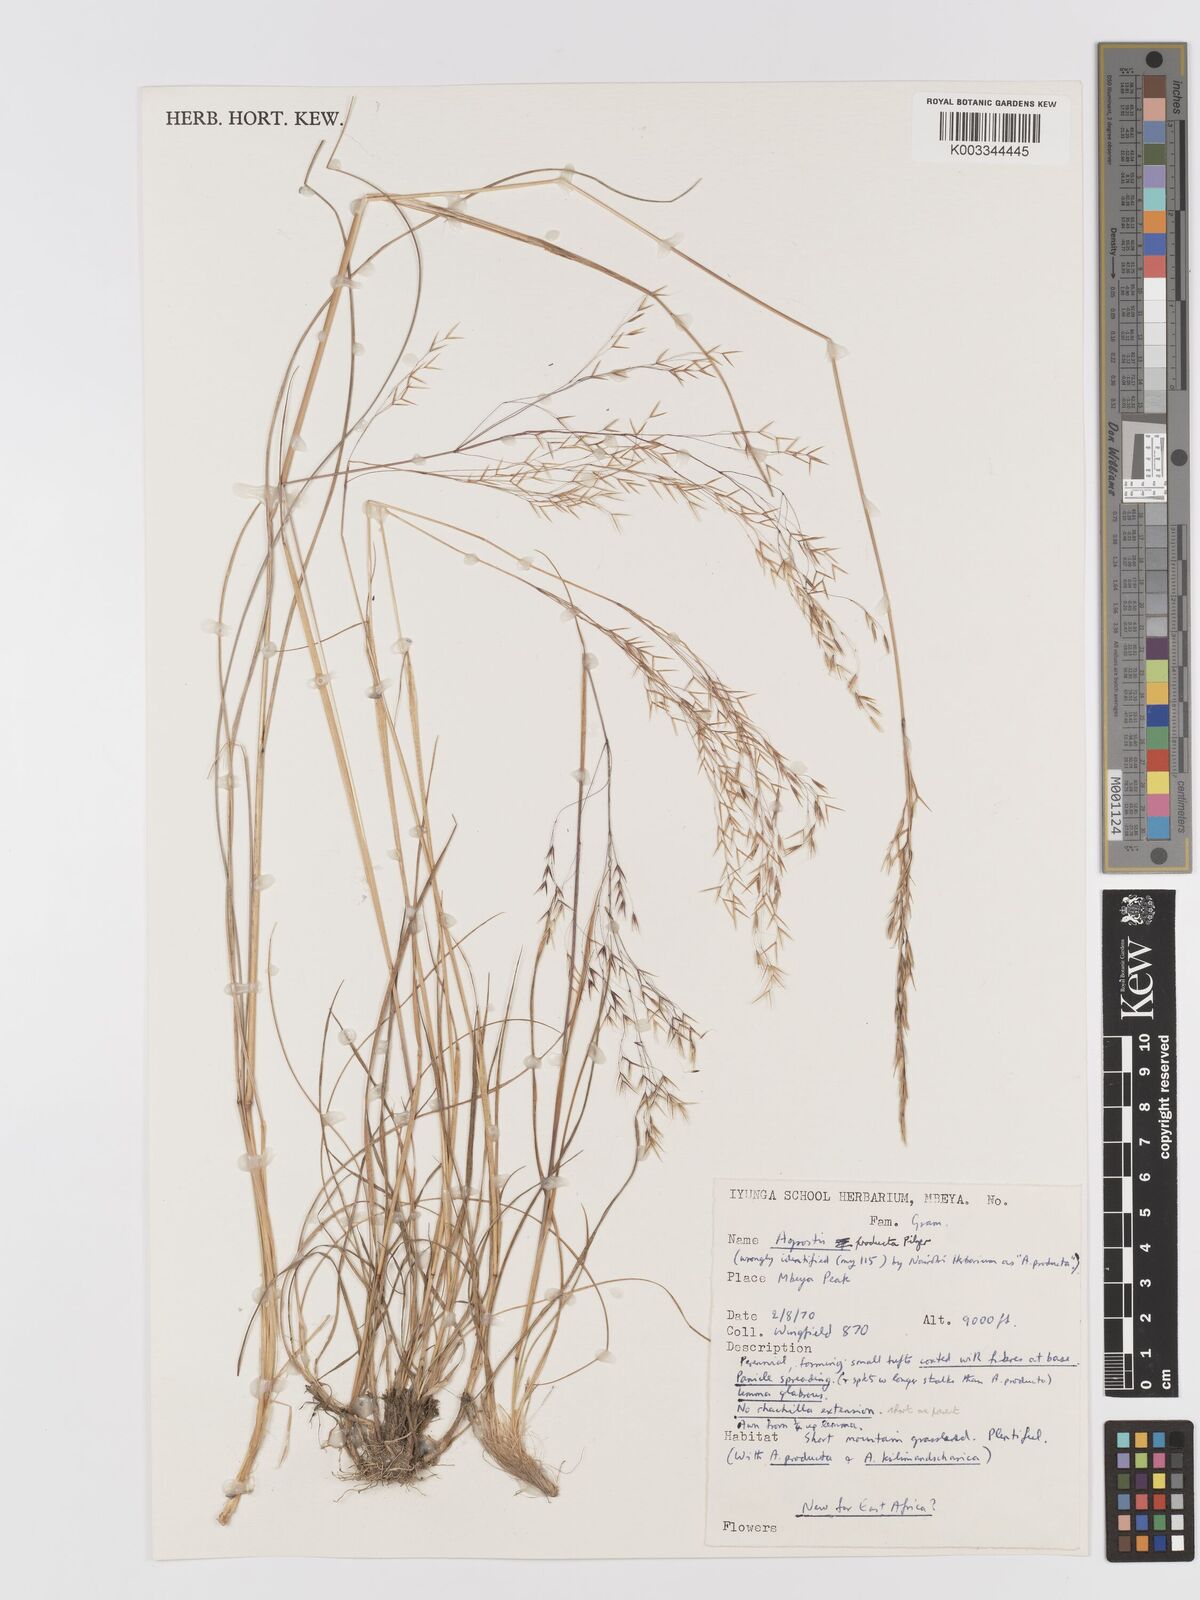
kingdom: Plantae
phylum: Tracheophyta
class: Liliopsida
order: Poales
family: Poaceae
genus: Agrostis
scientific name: Agrostis producta
